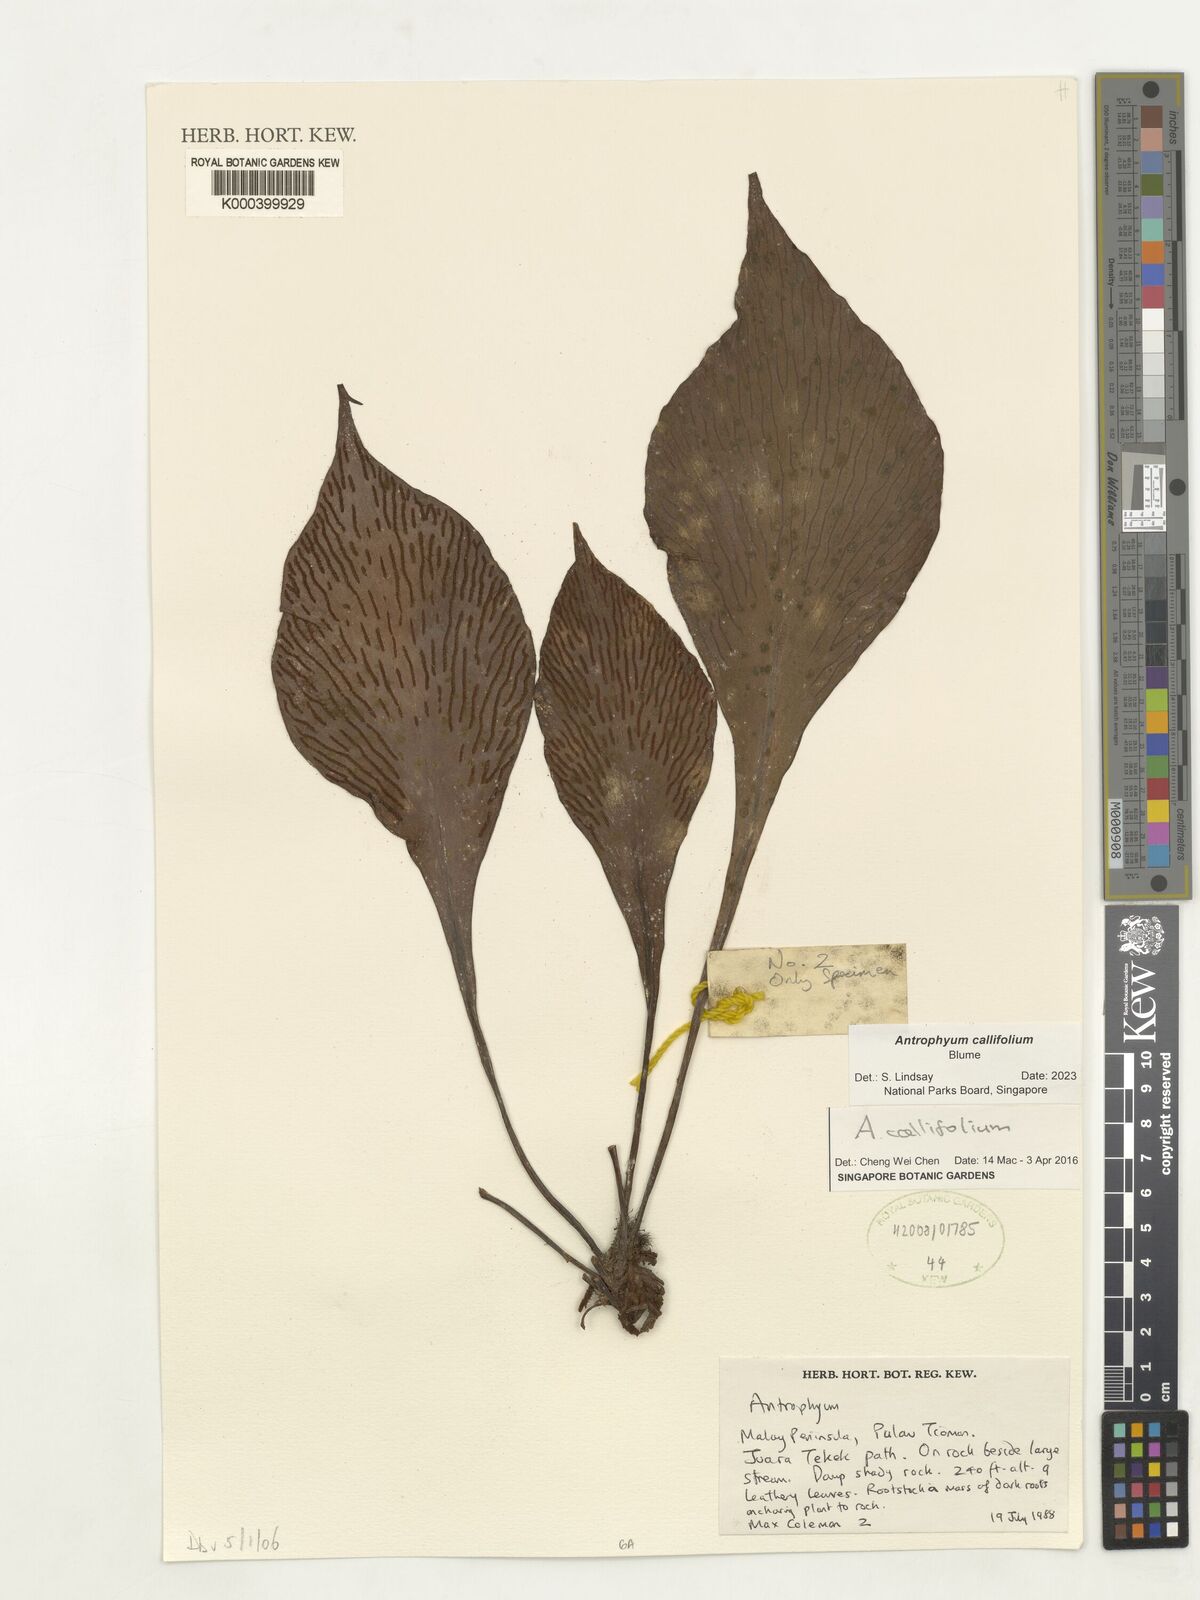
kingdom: Plantae
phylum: Tracheophyta
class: Polypodiopsida
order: Polypodiales
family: Pteridaceae
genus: Antrophyum
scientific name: Antrophyum callifolium
